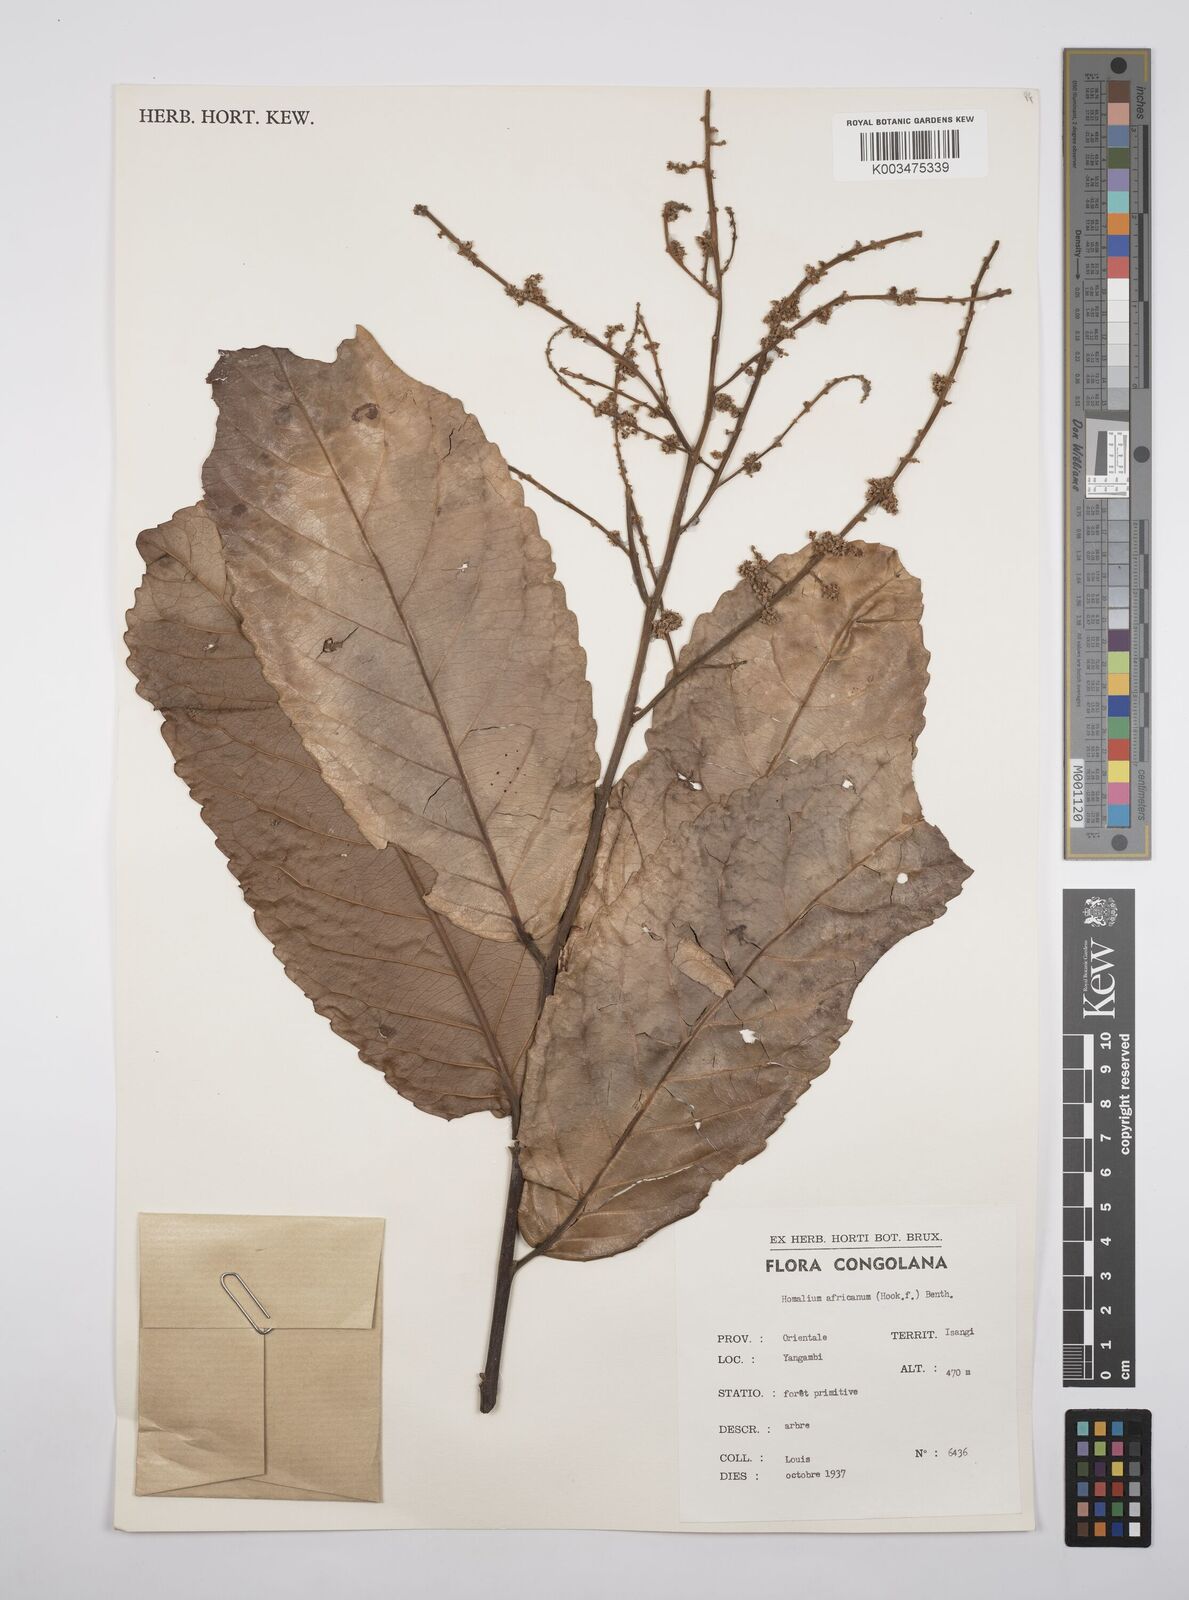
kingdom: Plantae
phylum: Tracheophyta
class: Magnoliopsida
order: Malpighiales
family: Salicaceae
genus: Homalium
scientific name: Homalium africanum
